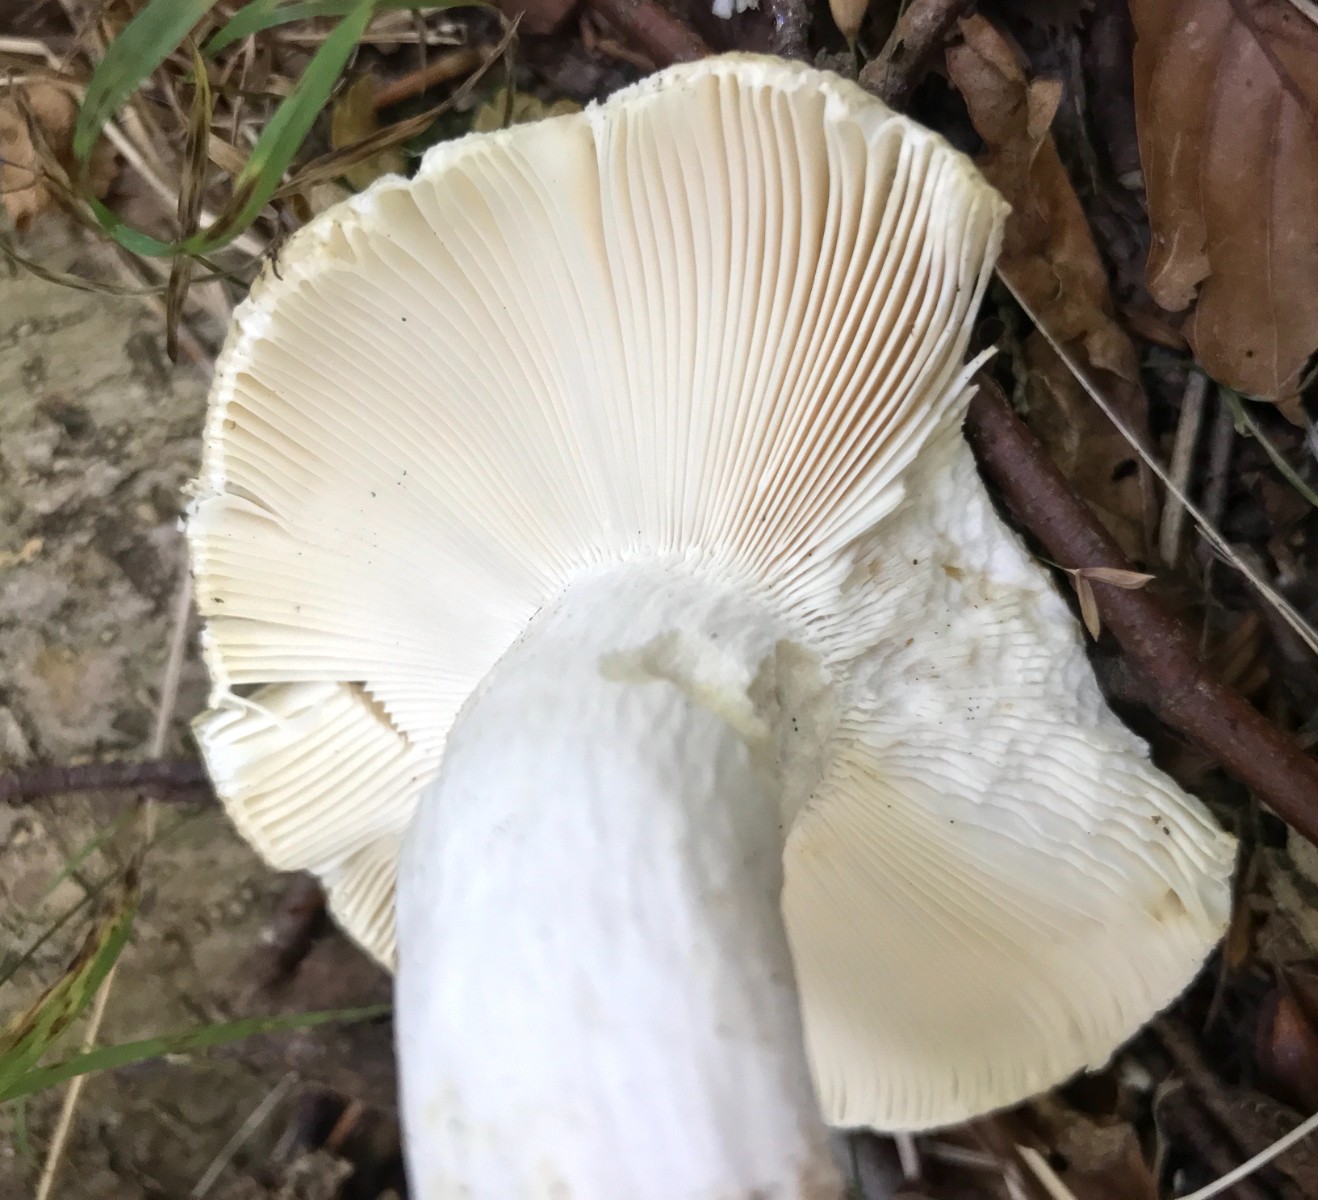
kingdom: Fungi
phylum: Basidiomycota
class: Agaricomycetes
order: Russulales
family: Russulaceae
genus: Russula
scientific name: Russula aeruginea
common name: græsgrøn skørhat
